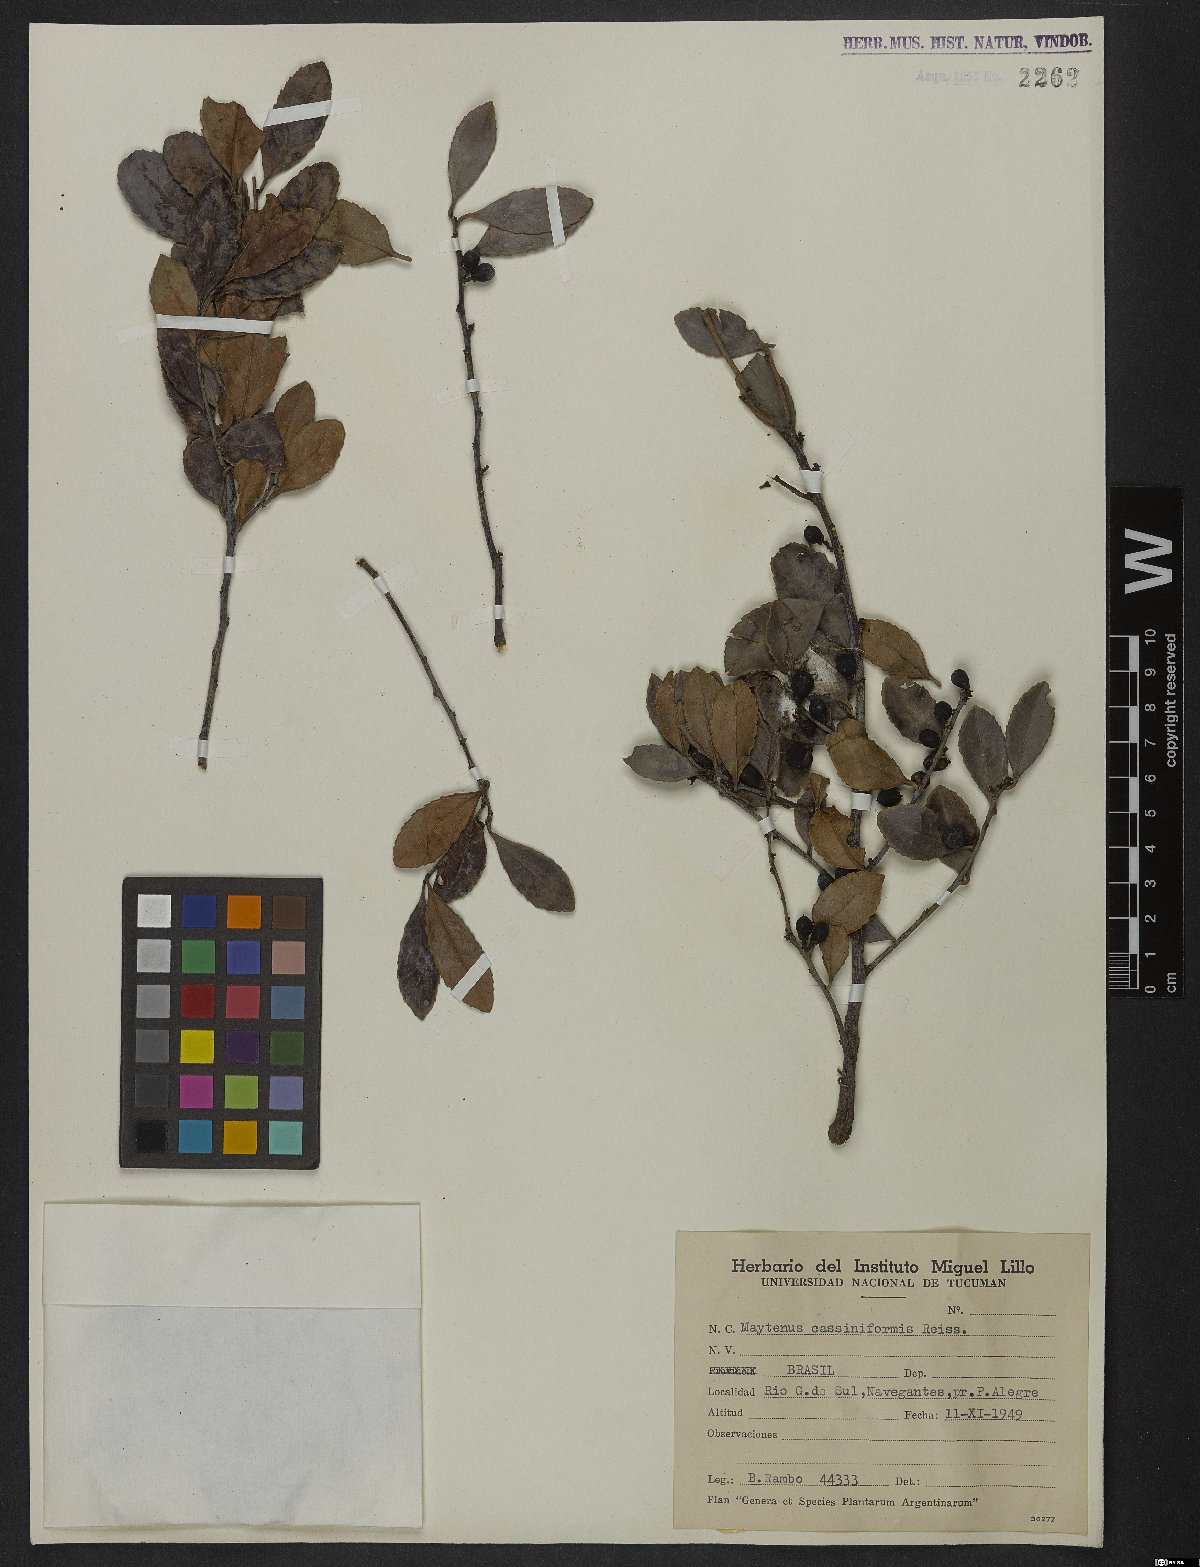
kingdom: Plantae
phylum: Tracheophyta
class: Magnoliopsida
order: Celastrales
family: Celastraceae
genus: Monteverdia
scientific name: Monteverdia cassineformis
